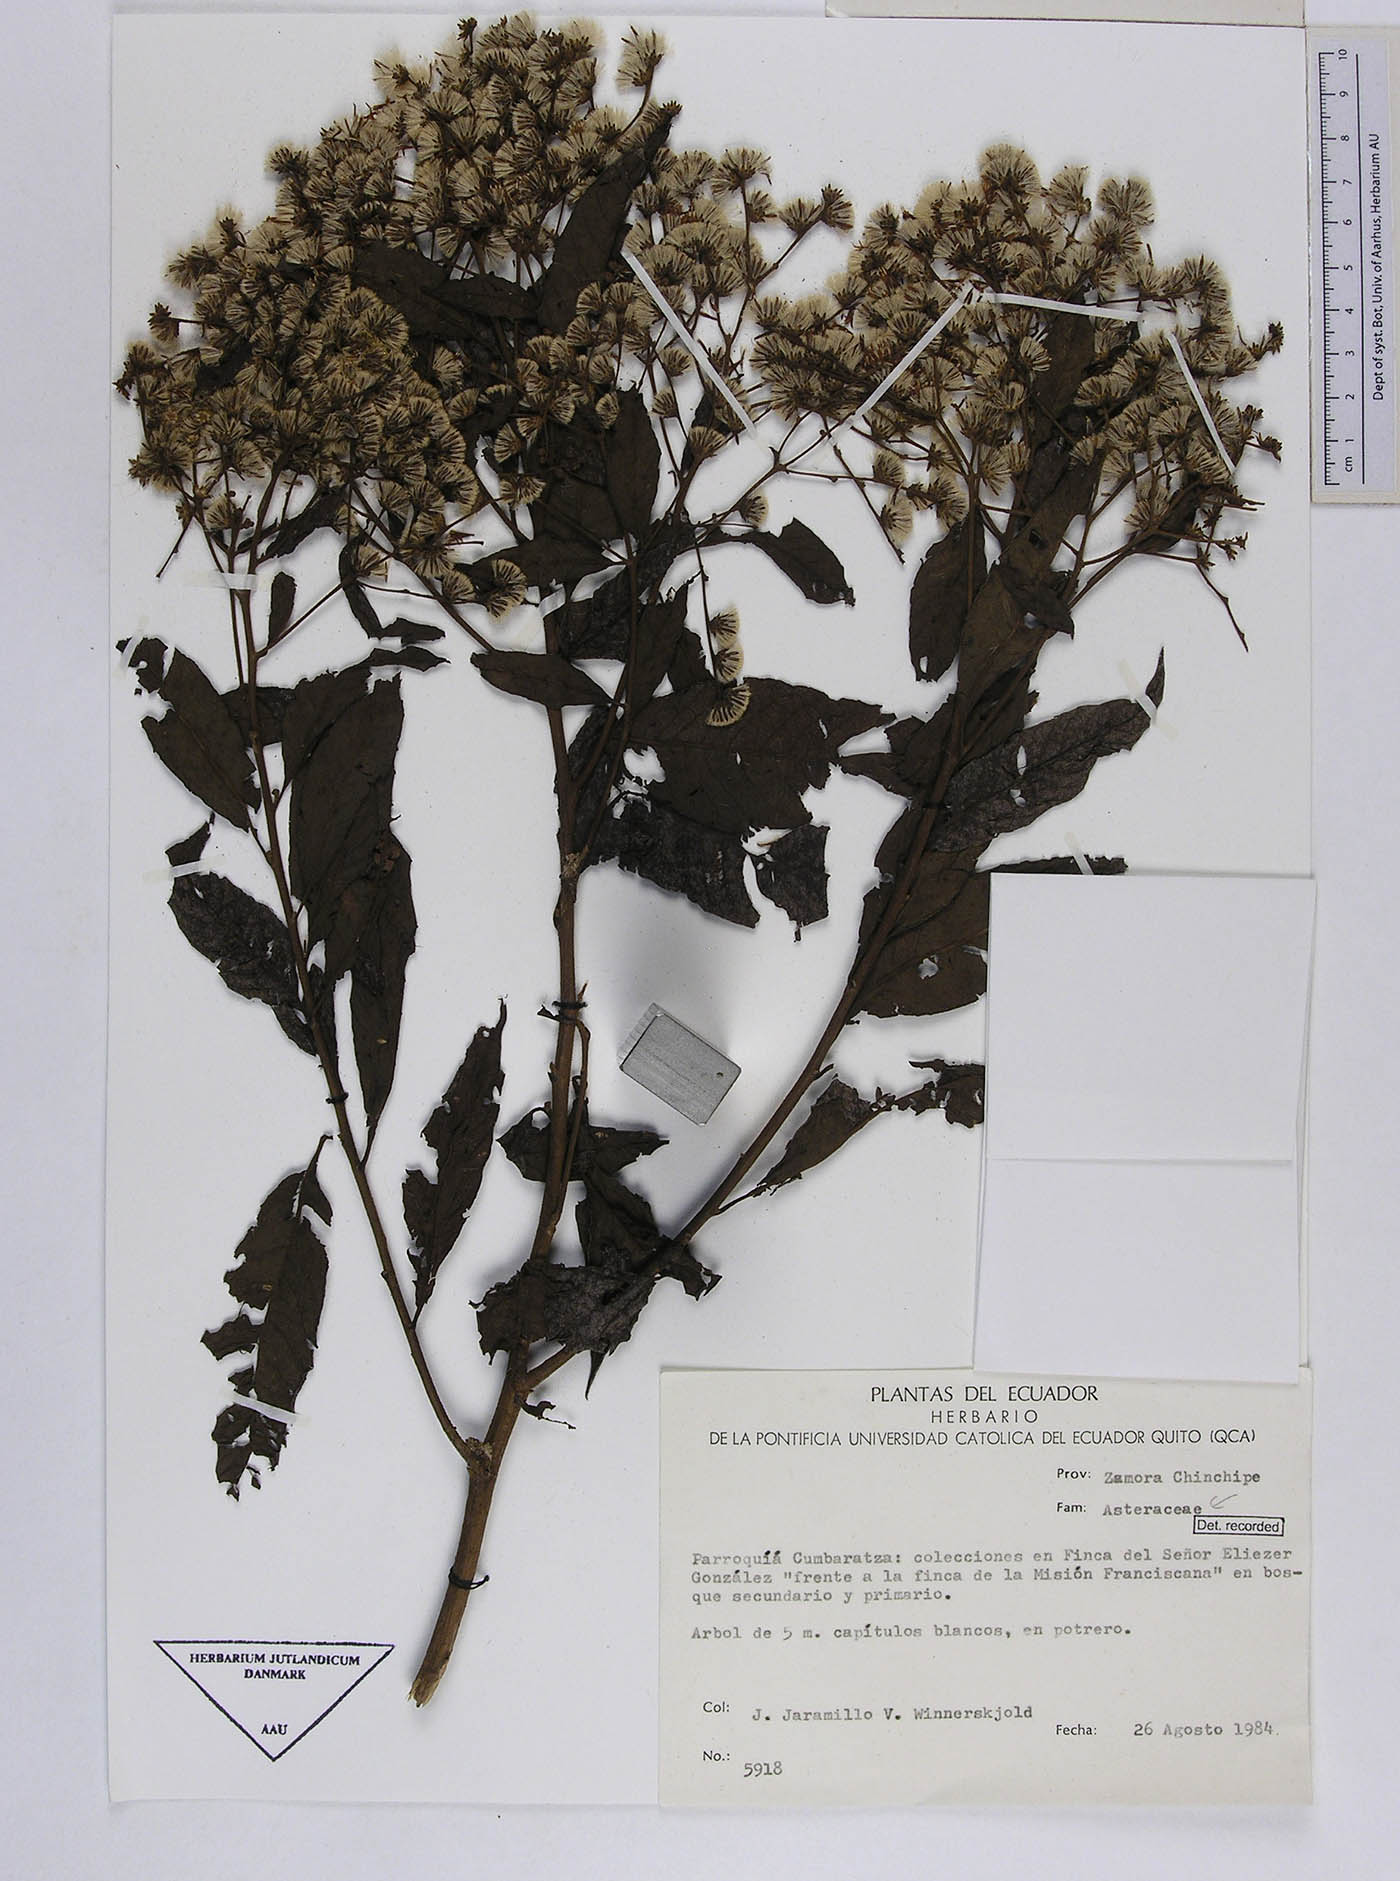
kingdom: Plantae
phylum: Tracheophyta
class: Magnoliopsida
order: Asterales
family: Asteraceae
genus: Vernonanthura
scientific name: Vernonanthura patens
